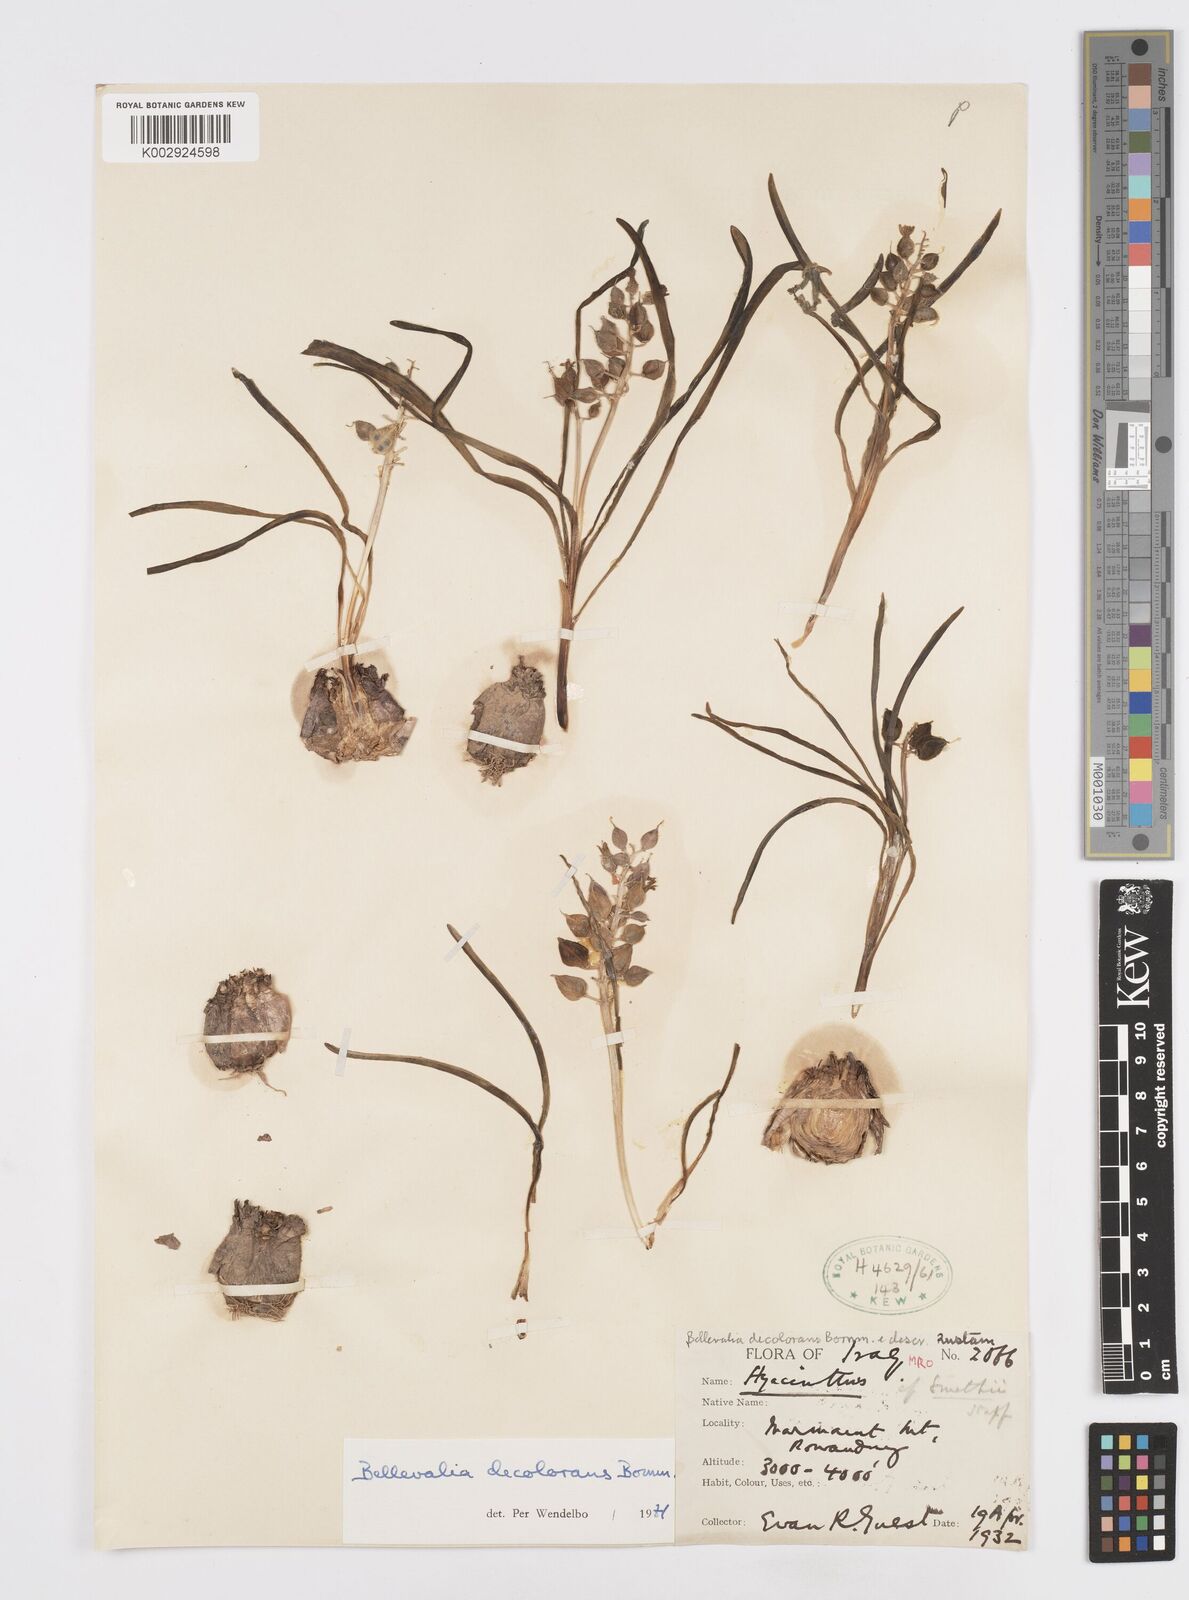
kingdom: Plantae
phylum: Tracheophyta
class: Liliopsida
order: Asparagales
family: Asparagaceae
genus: Bellevalia
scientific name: Bellevalia decolorans
